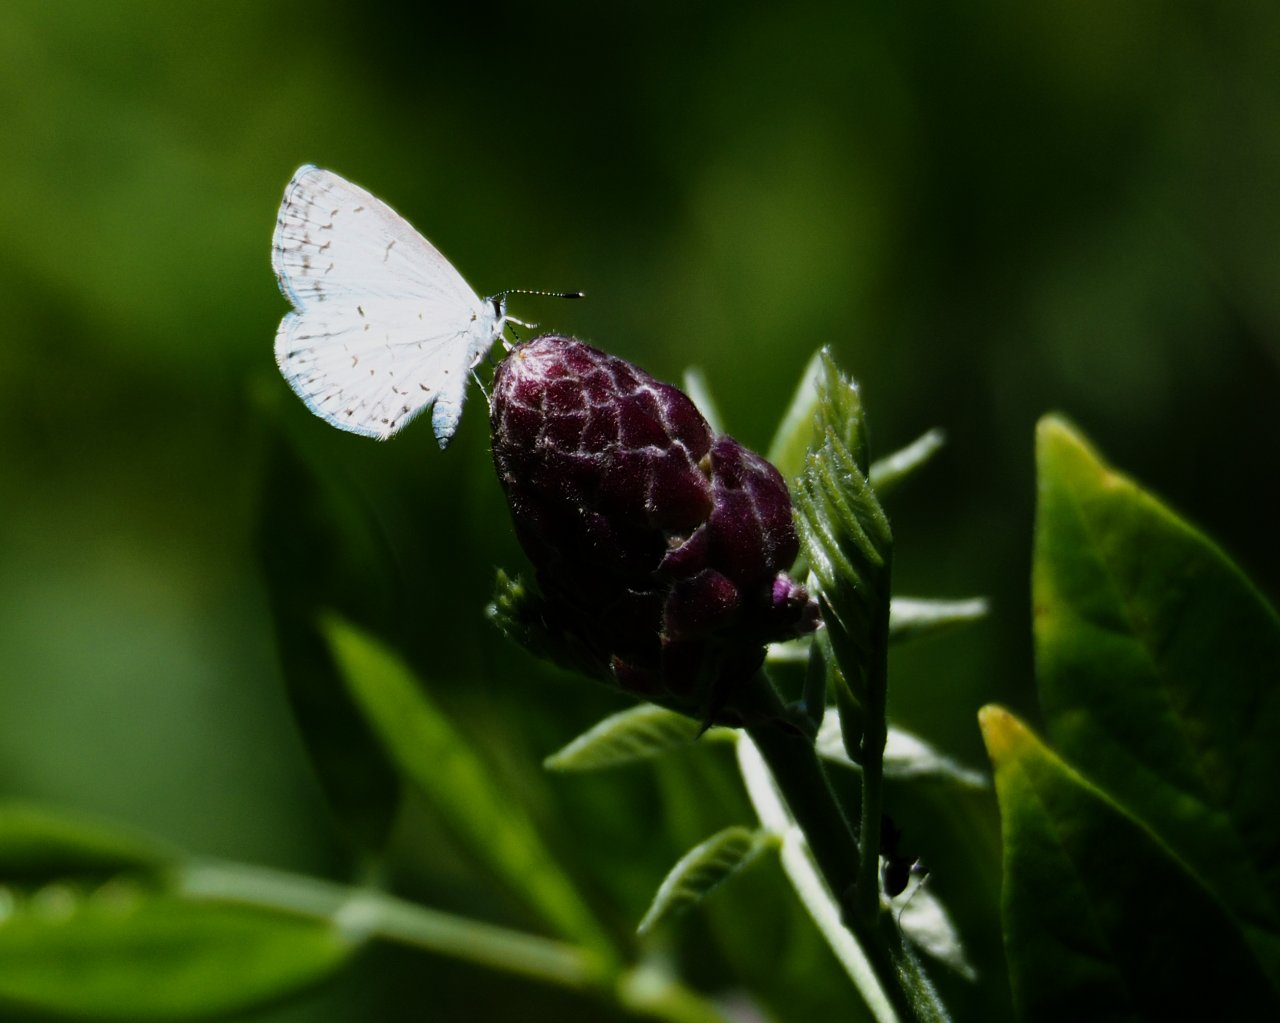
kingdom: Animalia
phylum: Arthropoda
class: Insecta
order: Lepidoptera
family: Lycaenidae
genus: Celastrina
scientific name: Celastrina ladon
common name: Spring Azure
